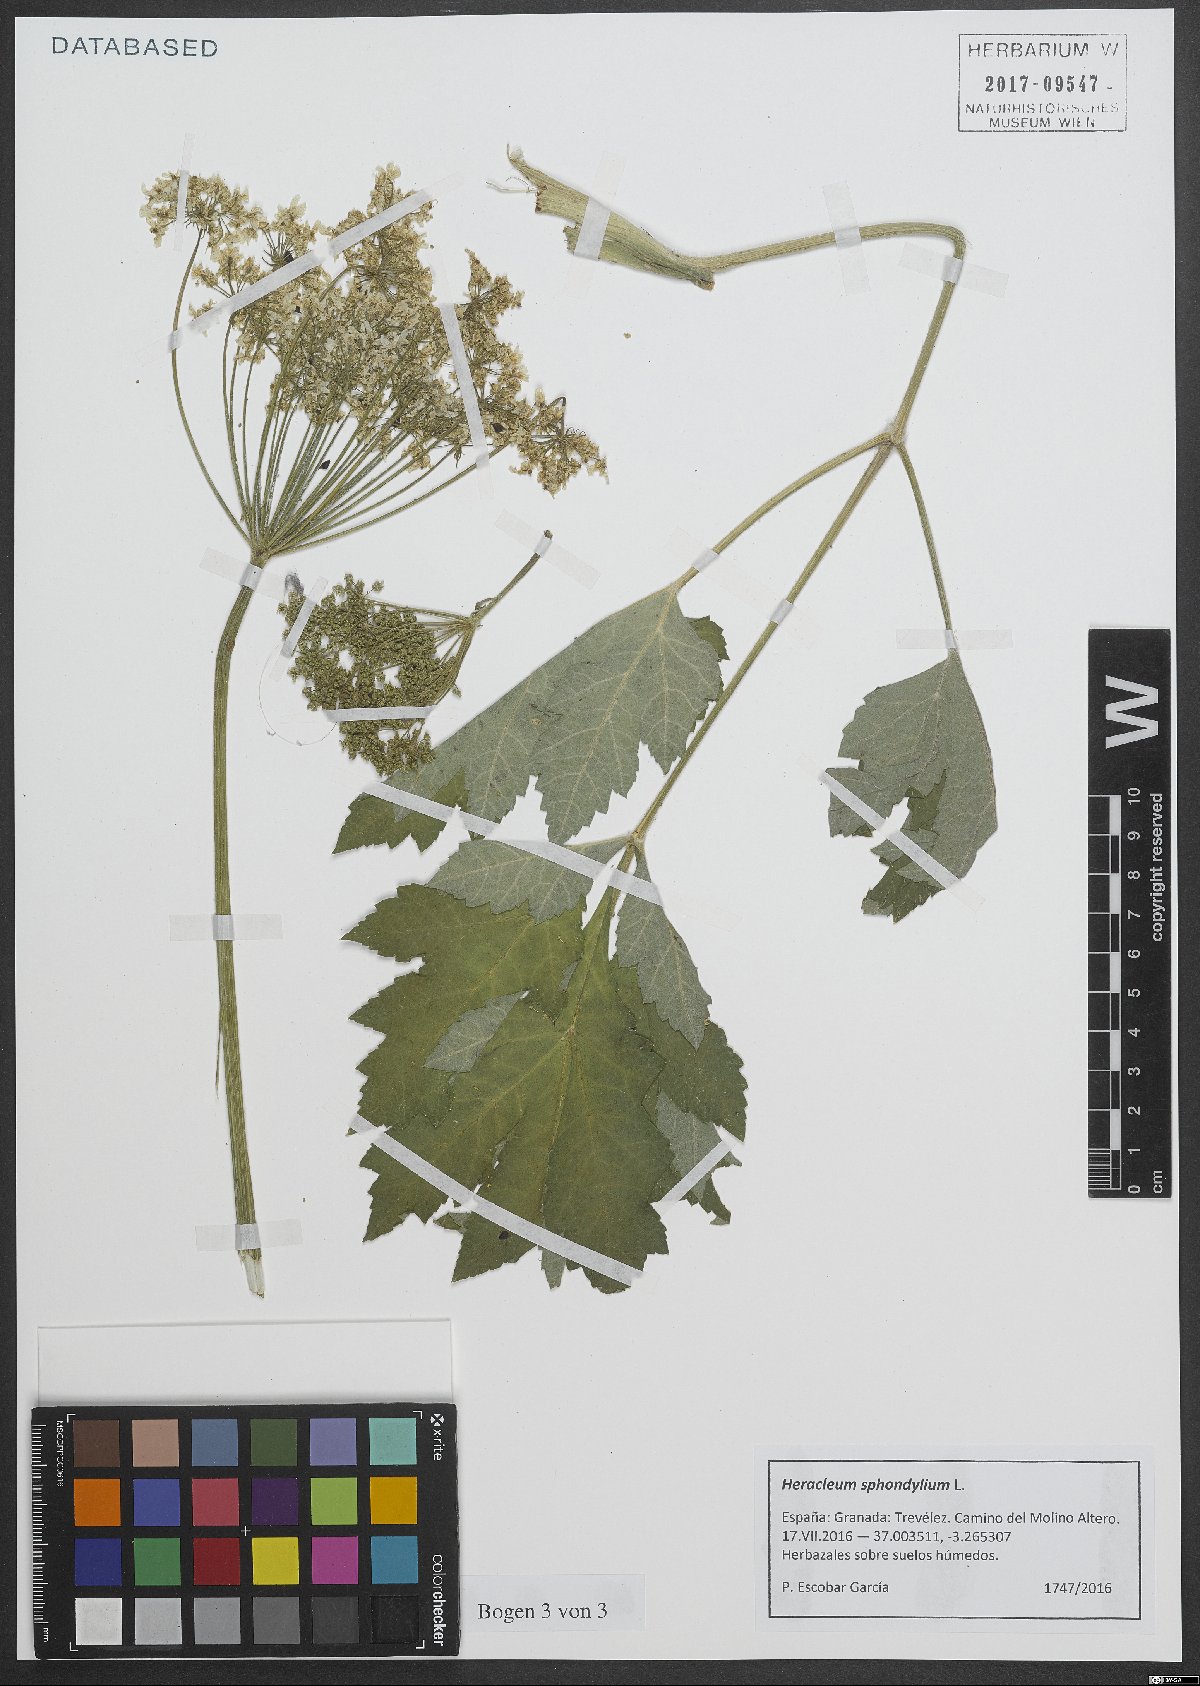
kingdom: Plantae
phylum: Tracheophyta
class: Magnoliopsida
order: Apiales
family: Apiaceae
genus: Heracleum
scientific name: Heracleum sphondylium
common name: Hogweed
